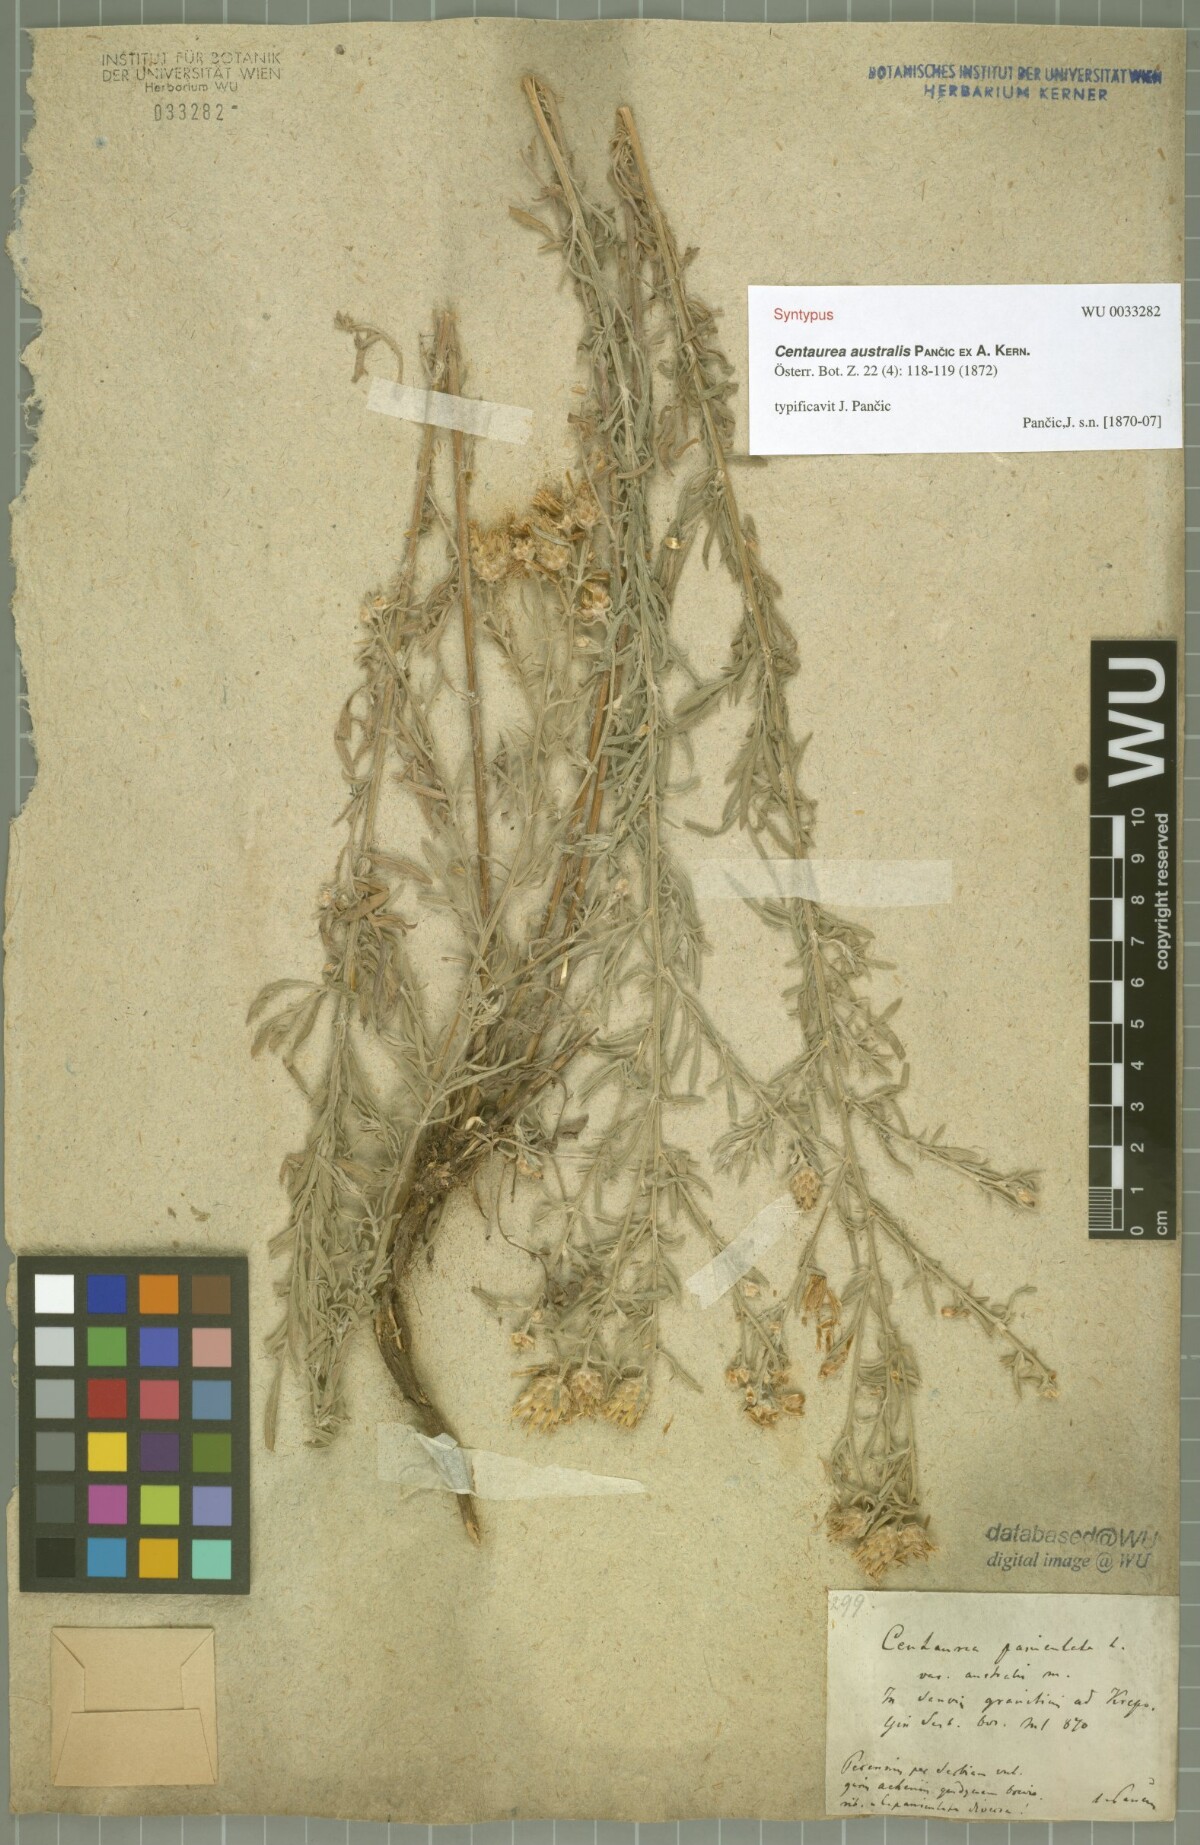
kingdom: Plantae
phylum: Tracheophyta
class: Magnoliopsida
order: Asterales
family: Asteraceae
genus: Centaurea
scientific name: Centaurea australis
